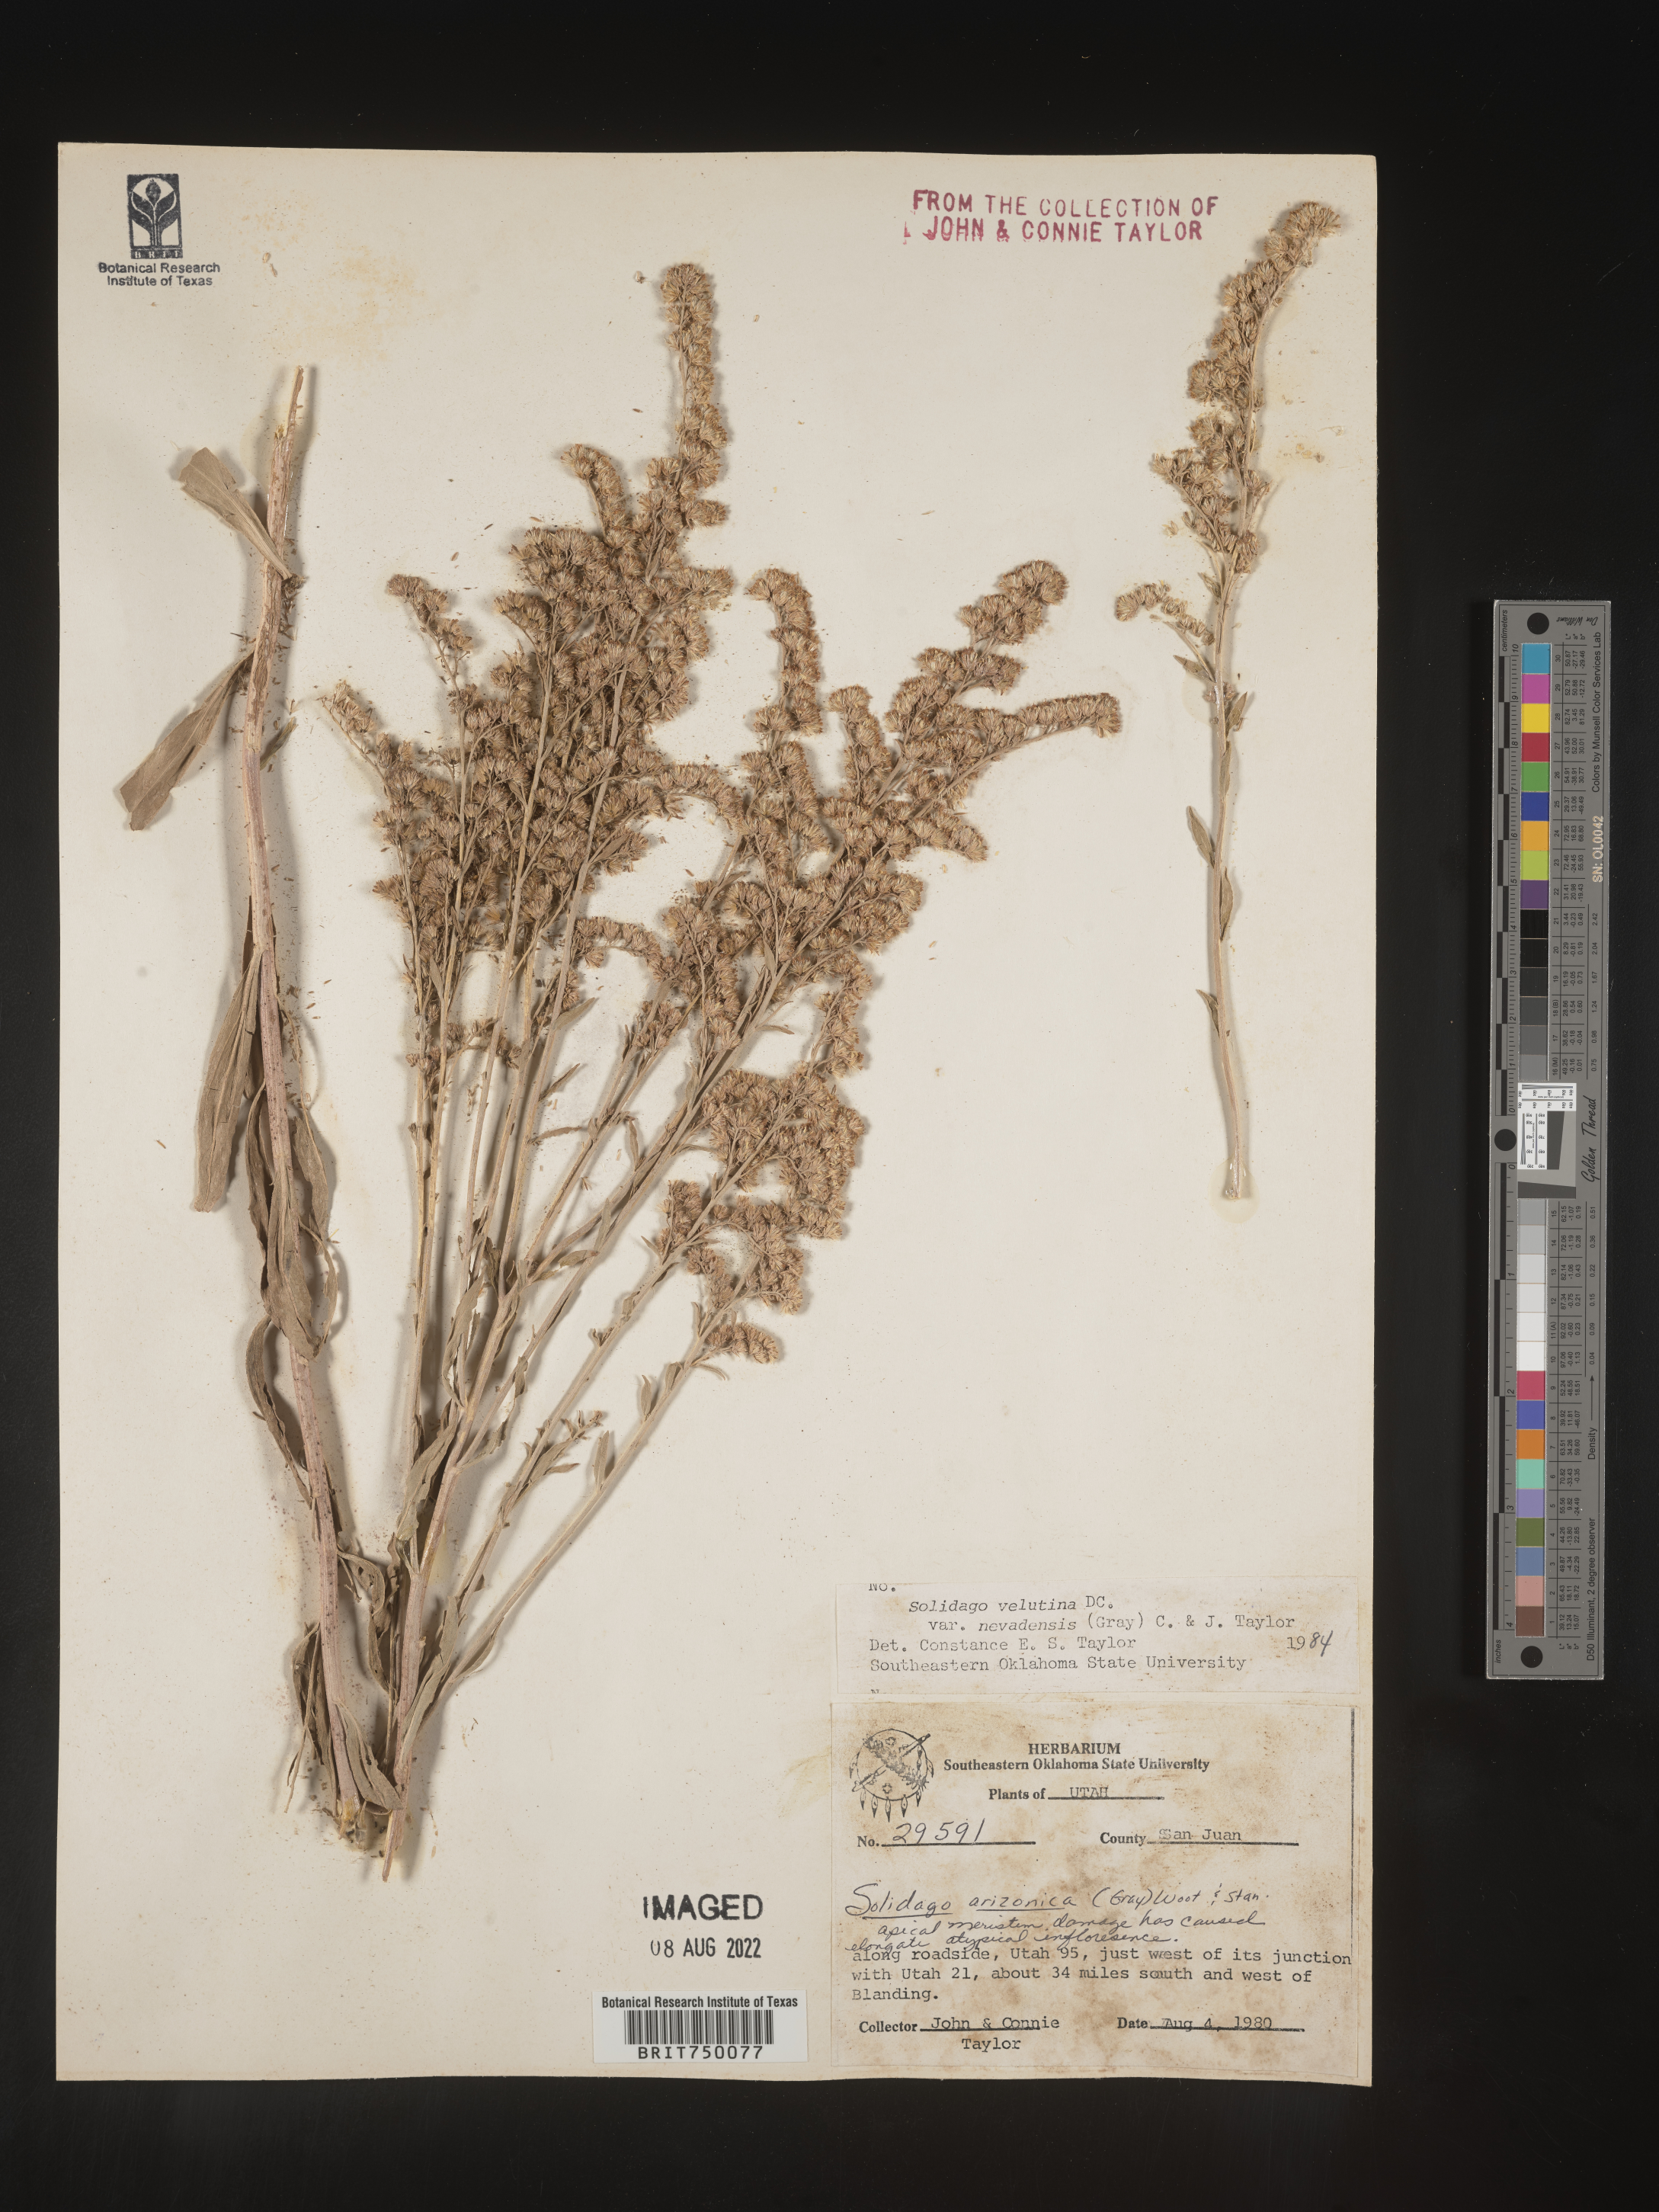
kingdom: Plantae
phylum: Tracheophyta
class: Magnoliopsida
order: Asterales
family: Asteraceae
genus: Solidago
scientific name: Solidago garrettii
